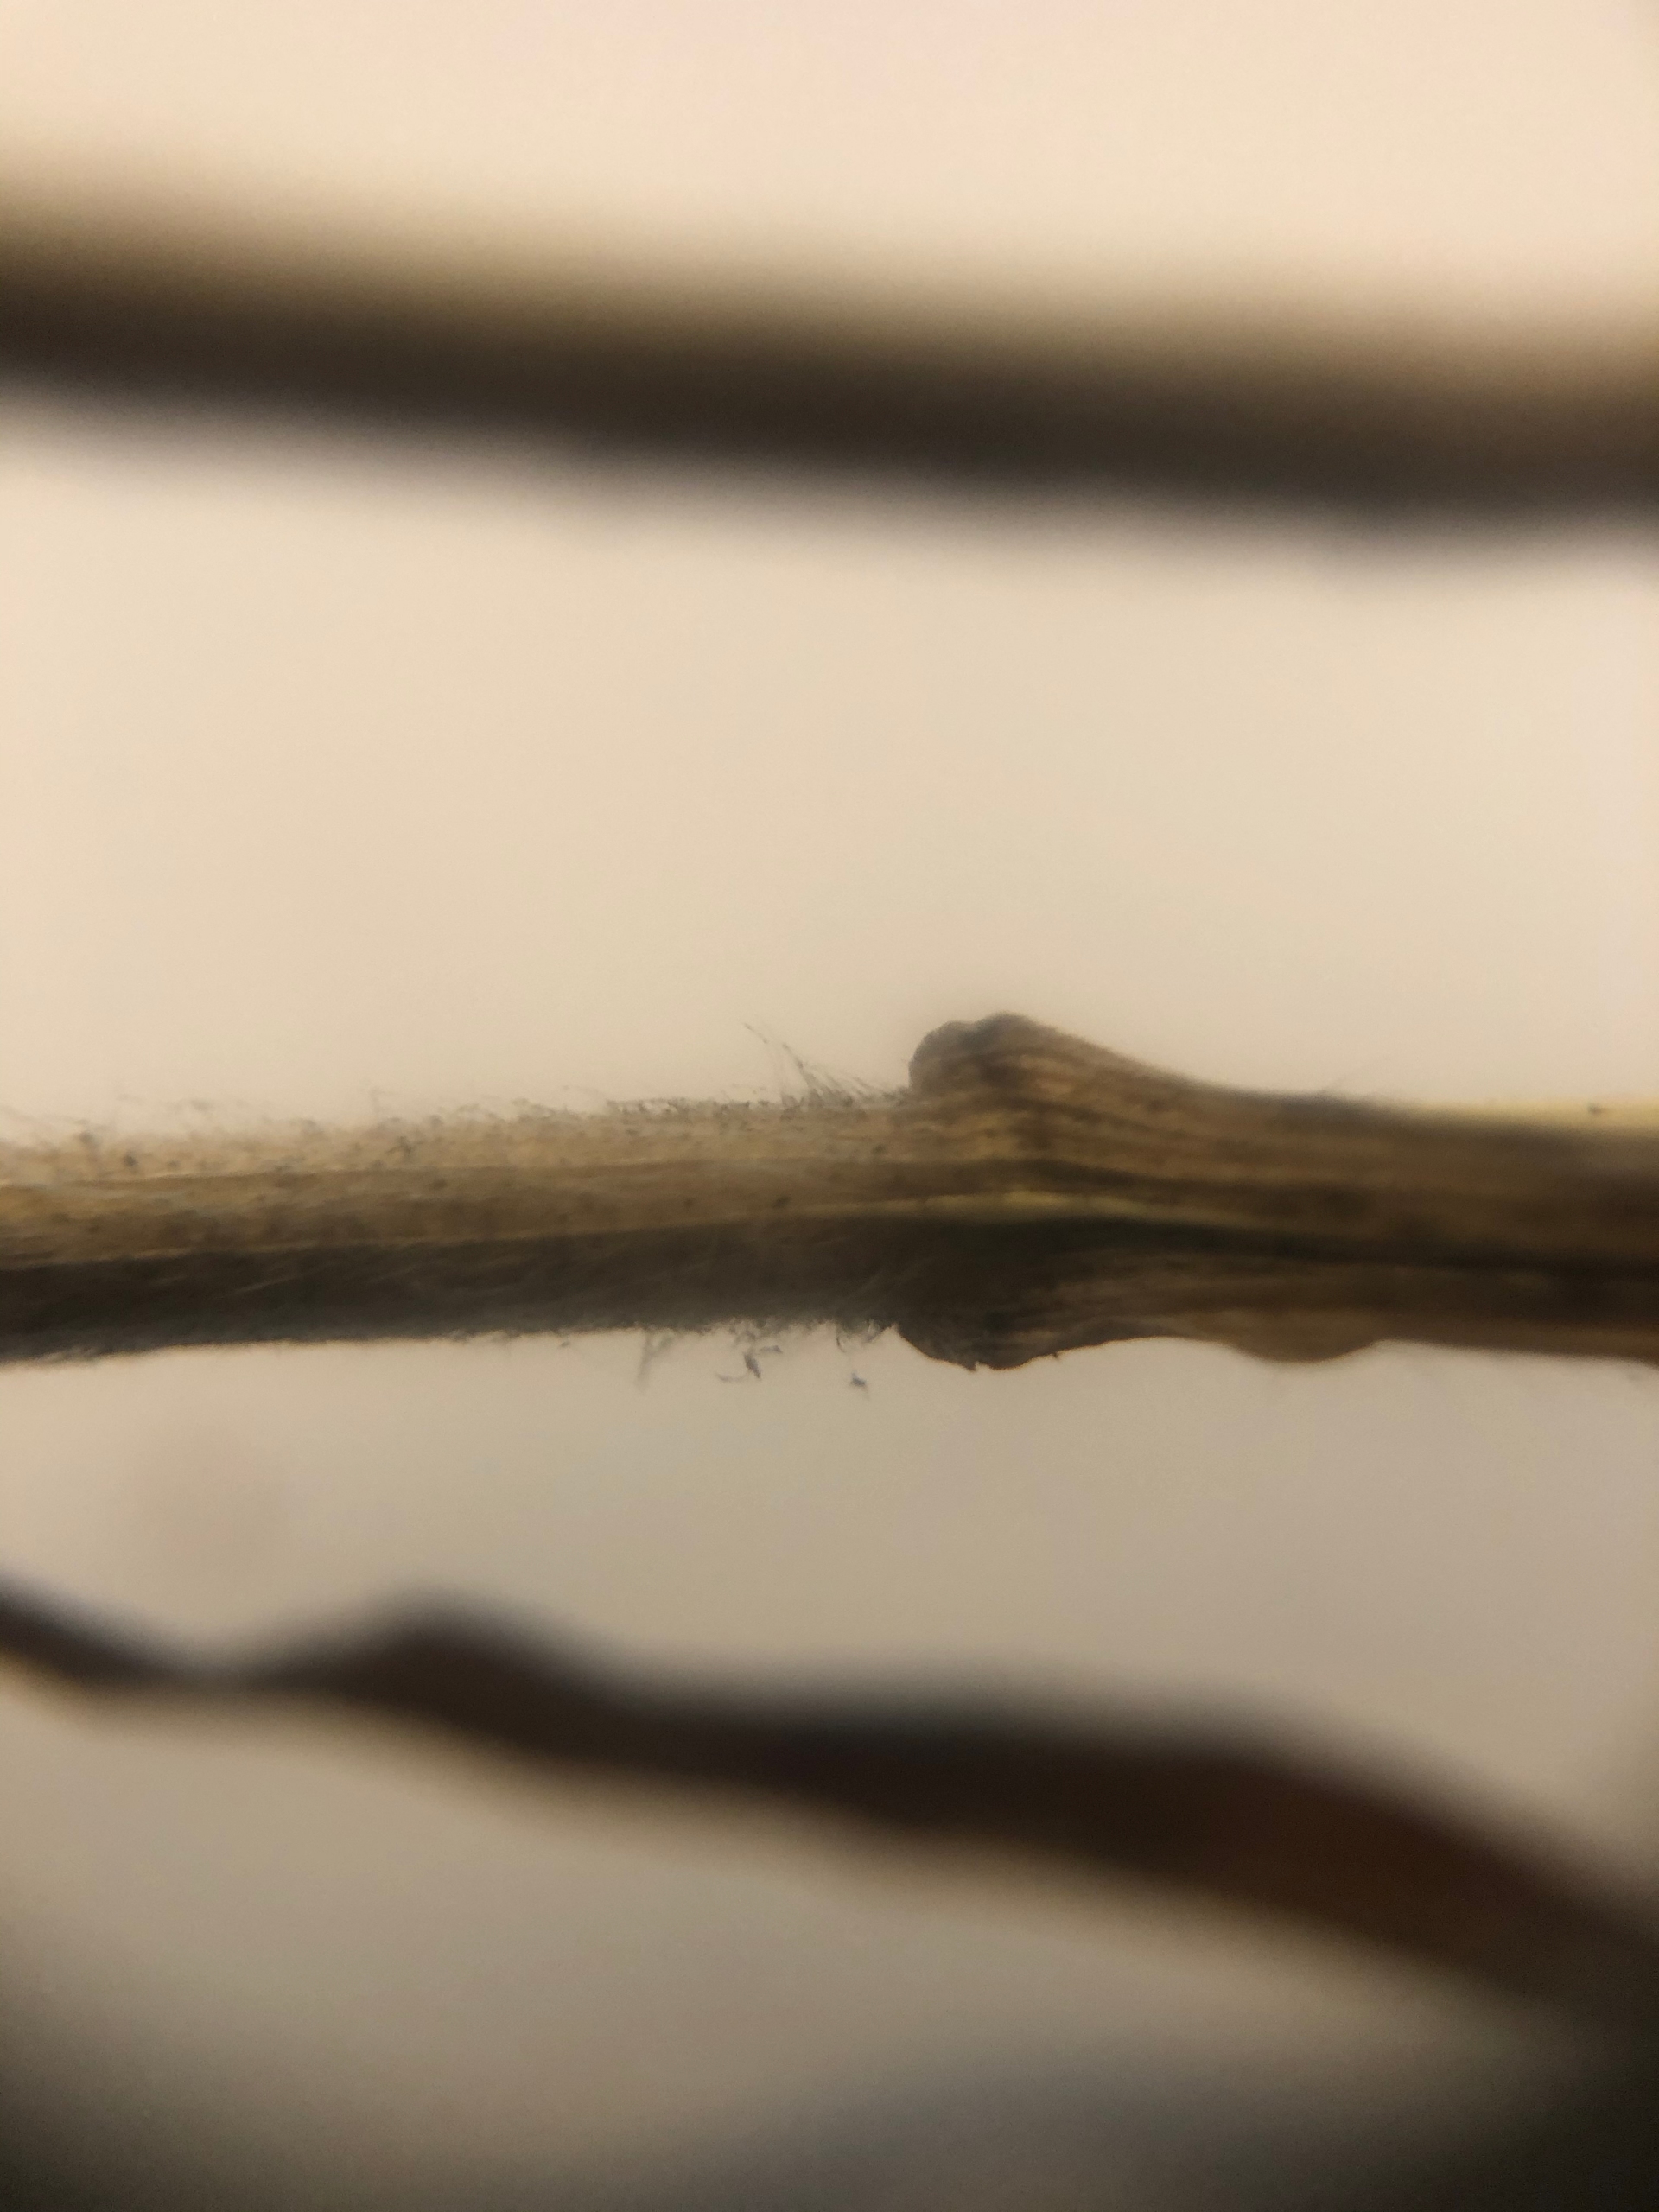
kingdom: Plantae
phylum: Tracheophyta
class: Liliopsida
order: Poales
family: Poaceae
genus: Bromus
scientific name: Bromus hordeaceus
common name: Blød hejre
